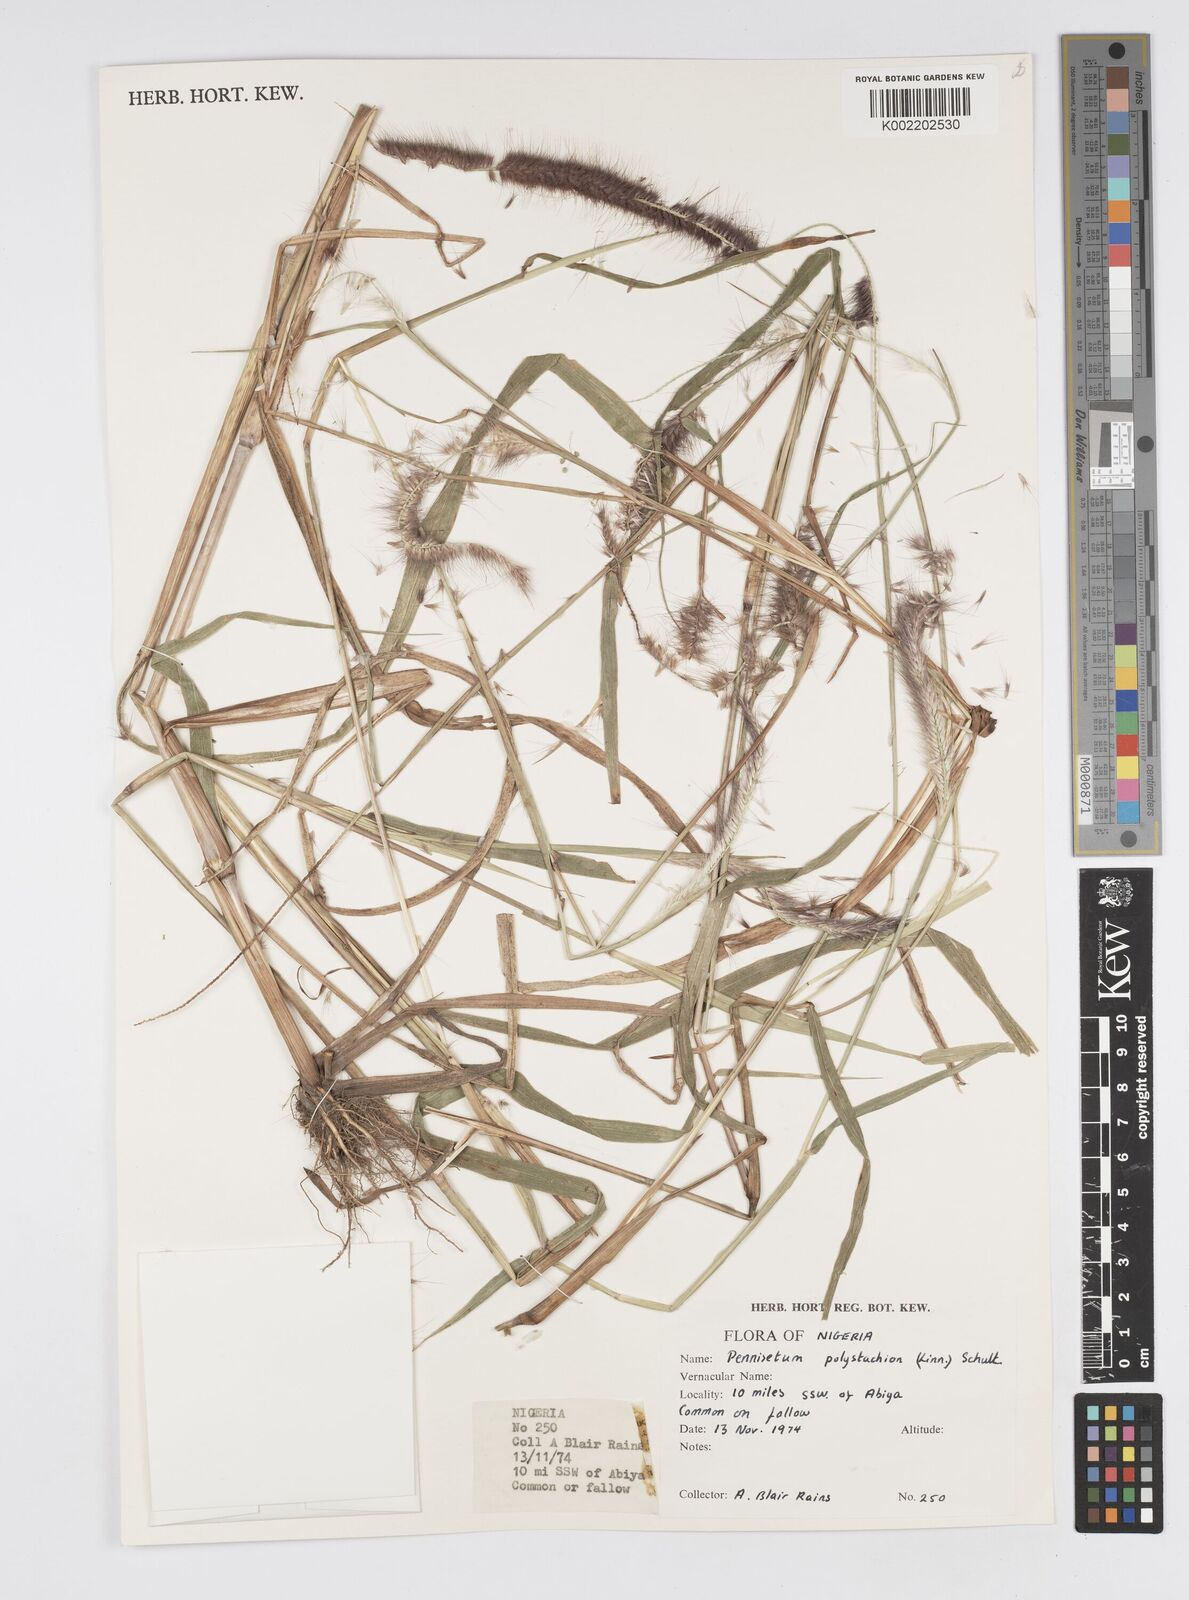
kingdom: Plantae
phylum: Tracheophyta
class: Liliopsida
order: Poales
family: Poaceae
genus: Setaria
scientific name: Setaria parviflora
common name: Knotroot bristle-grass
